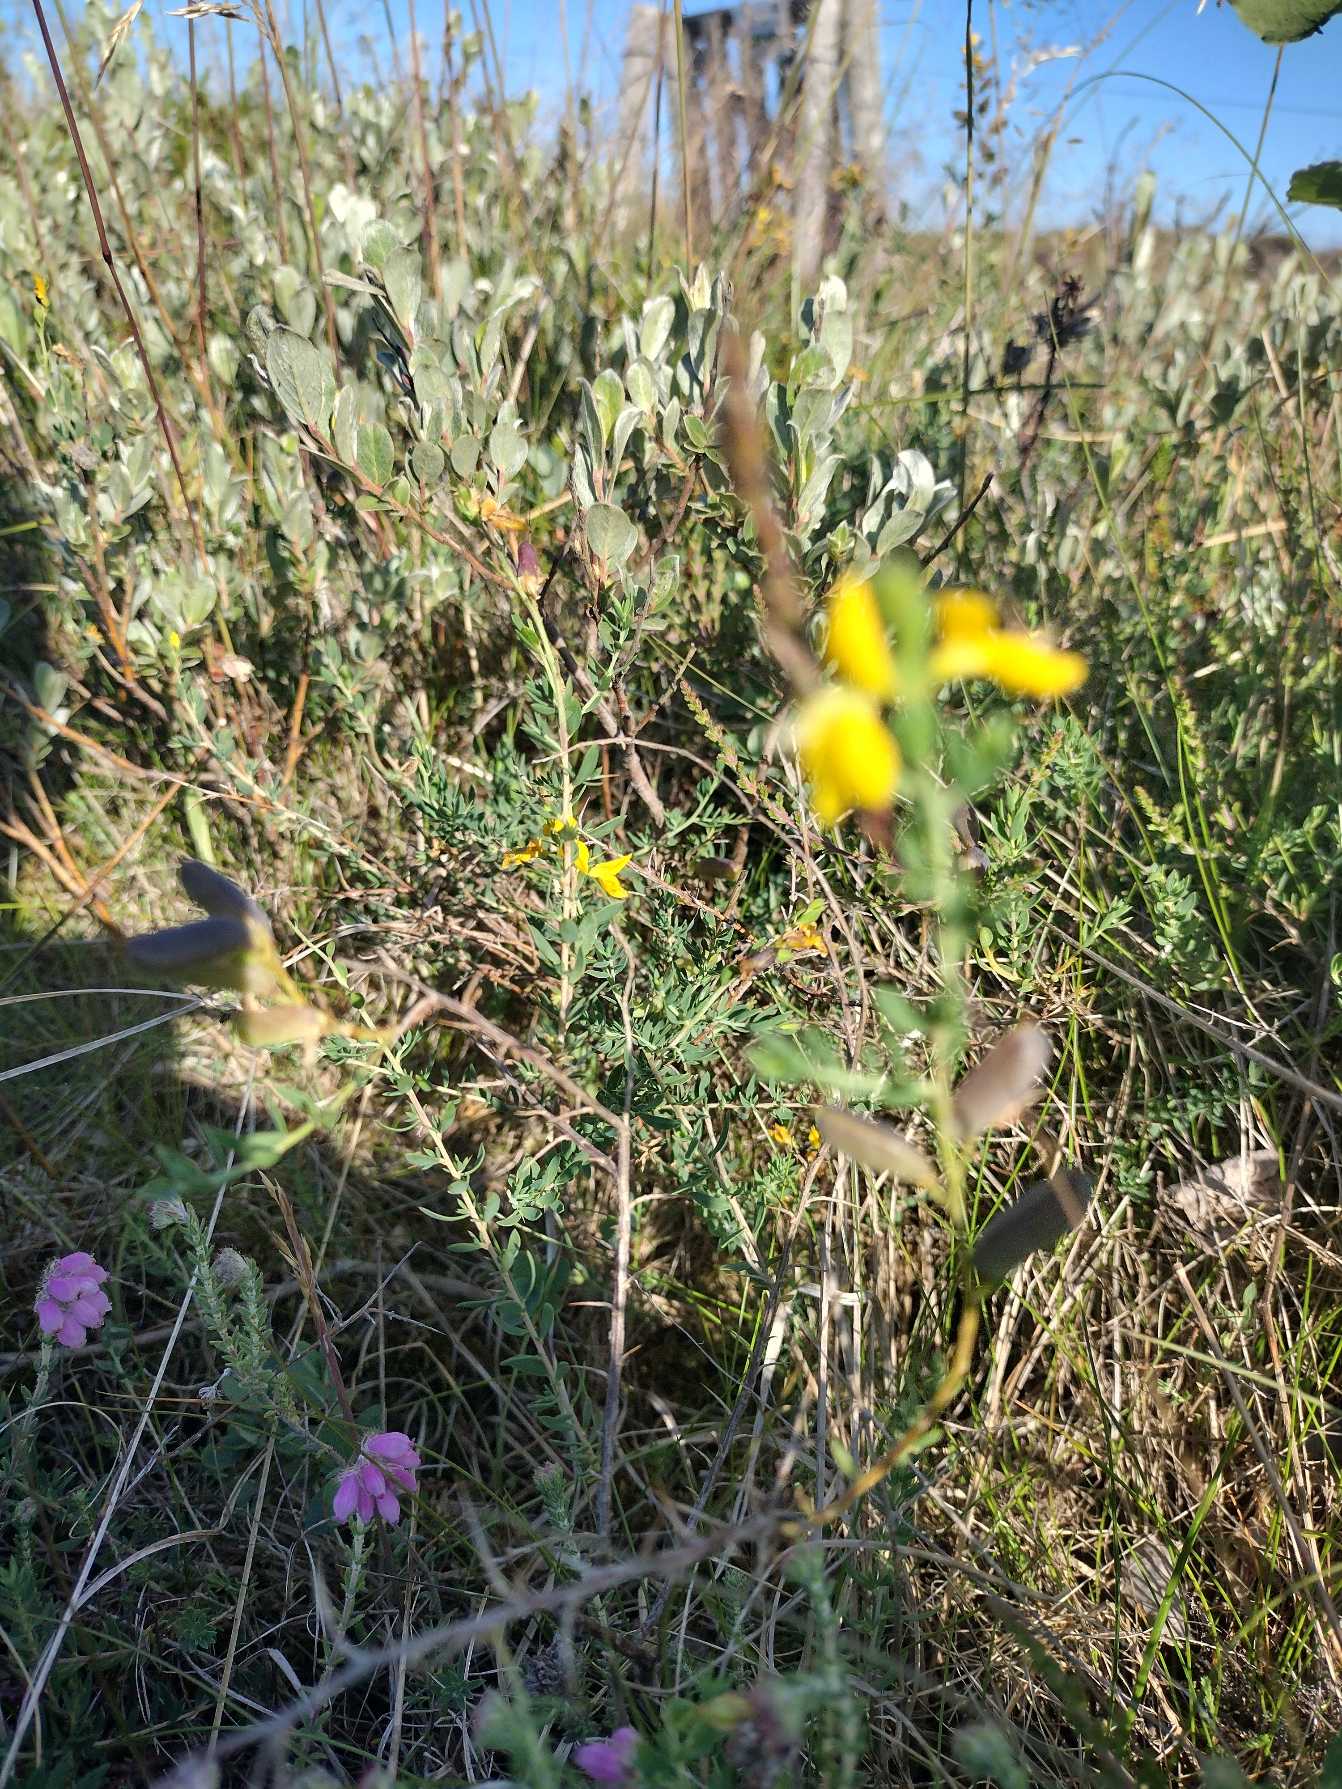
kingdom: Plantae
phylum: Tracheophyta
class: Magnoliopsida
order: Fabales
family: Fabaceae
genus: Genista
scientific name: Genista anglica
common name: Engelsk visse
